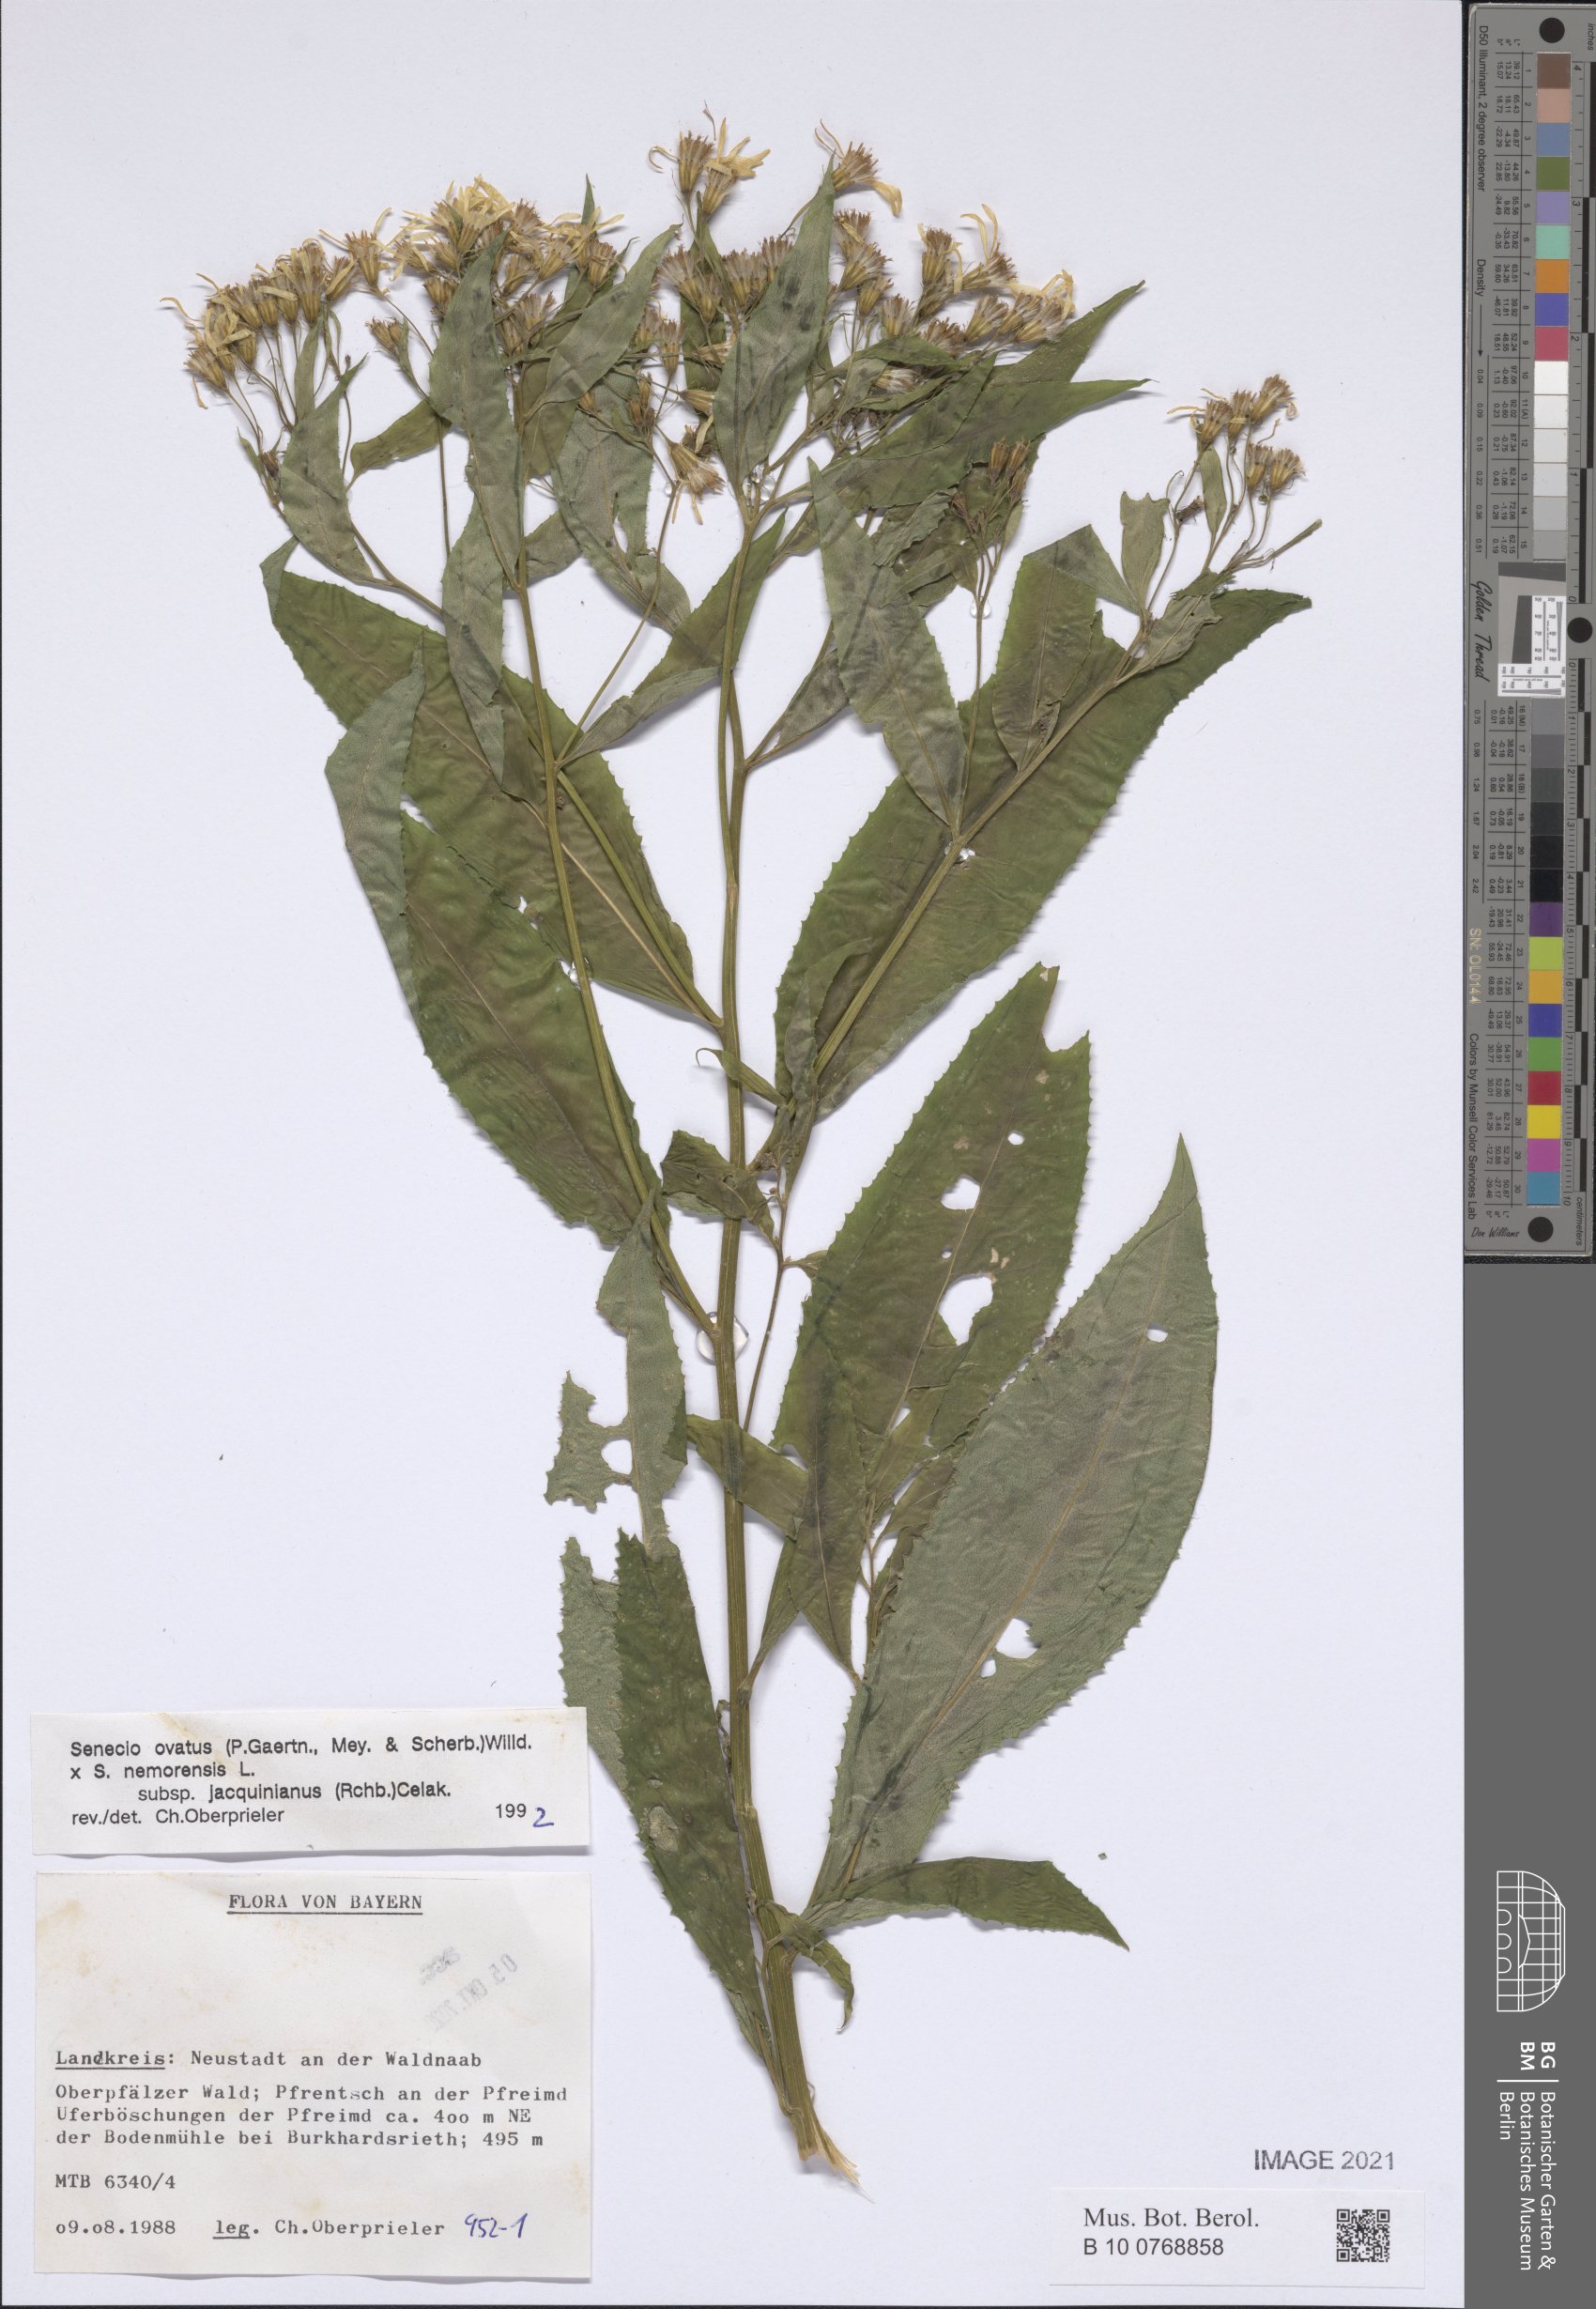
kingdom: Plantae
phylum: Tracheophyta
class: Magnoliopsida
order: Asterales
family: Asteraceae
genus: Senecio
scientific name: Senecio ovatus
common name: Wood ragwort
